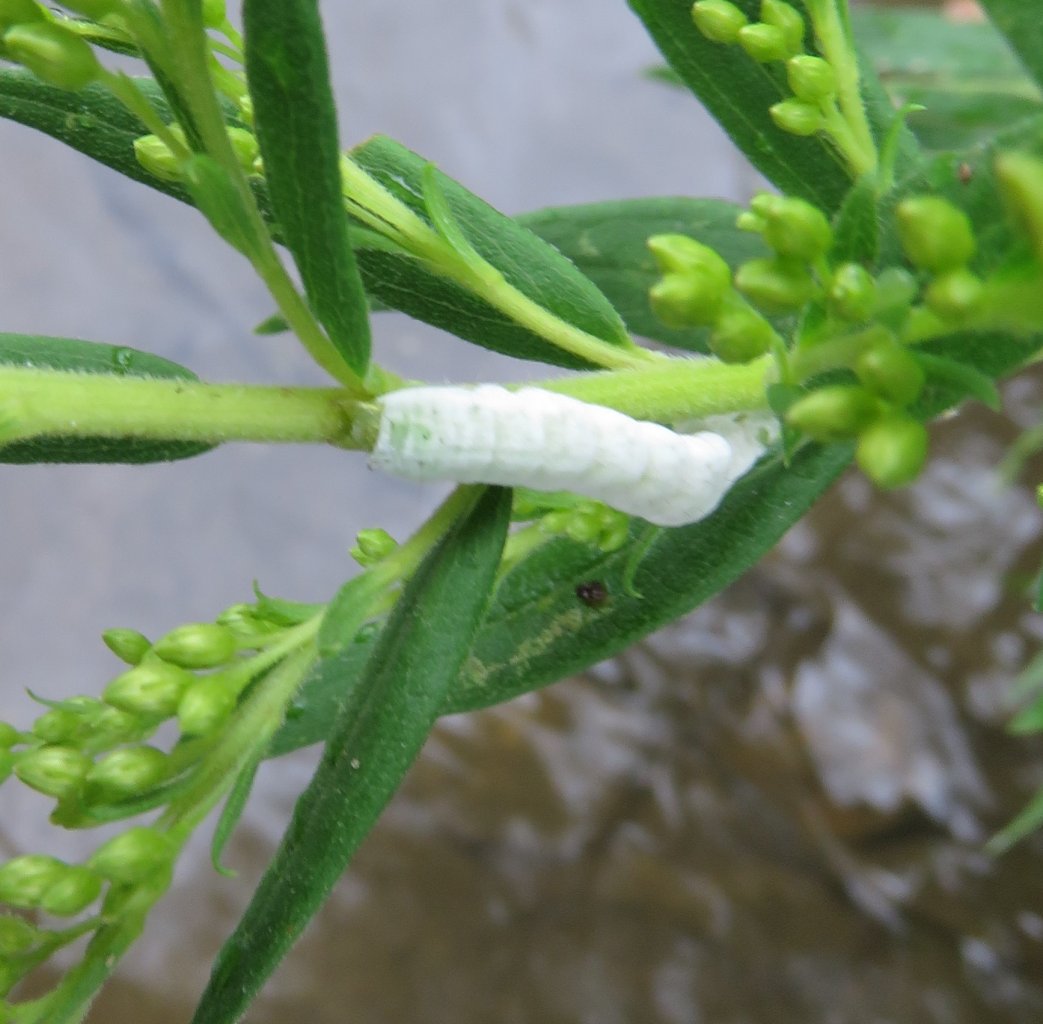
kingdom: Animalia
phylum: Arthropoda
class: Insecta
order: Lepidoptera
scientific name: Lepidoptera
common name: Butterflies
